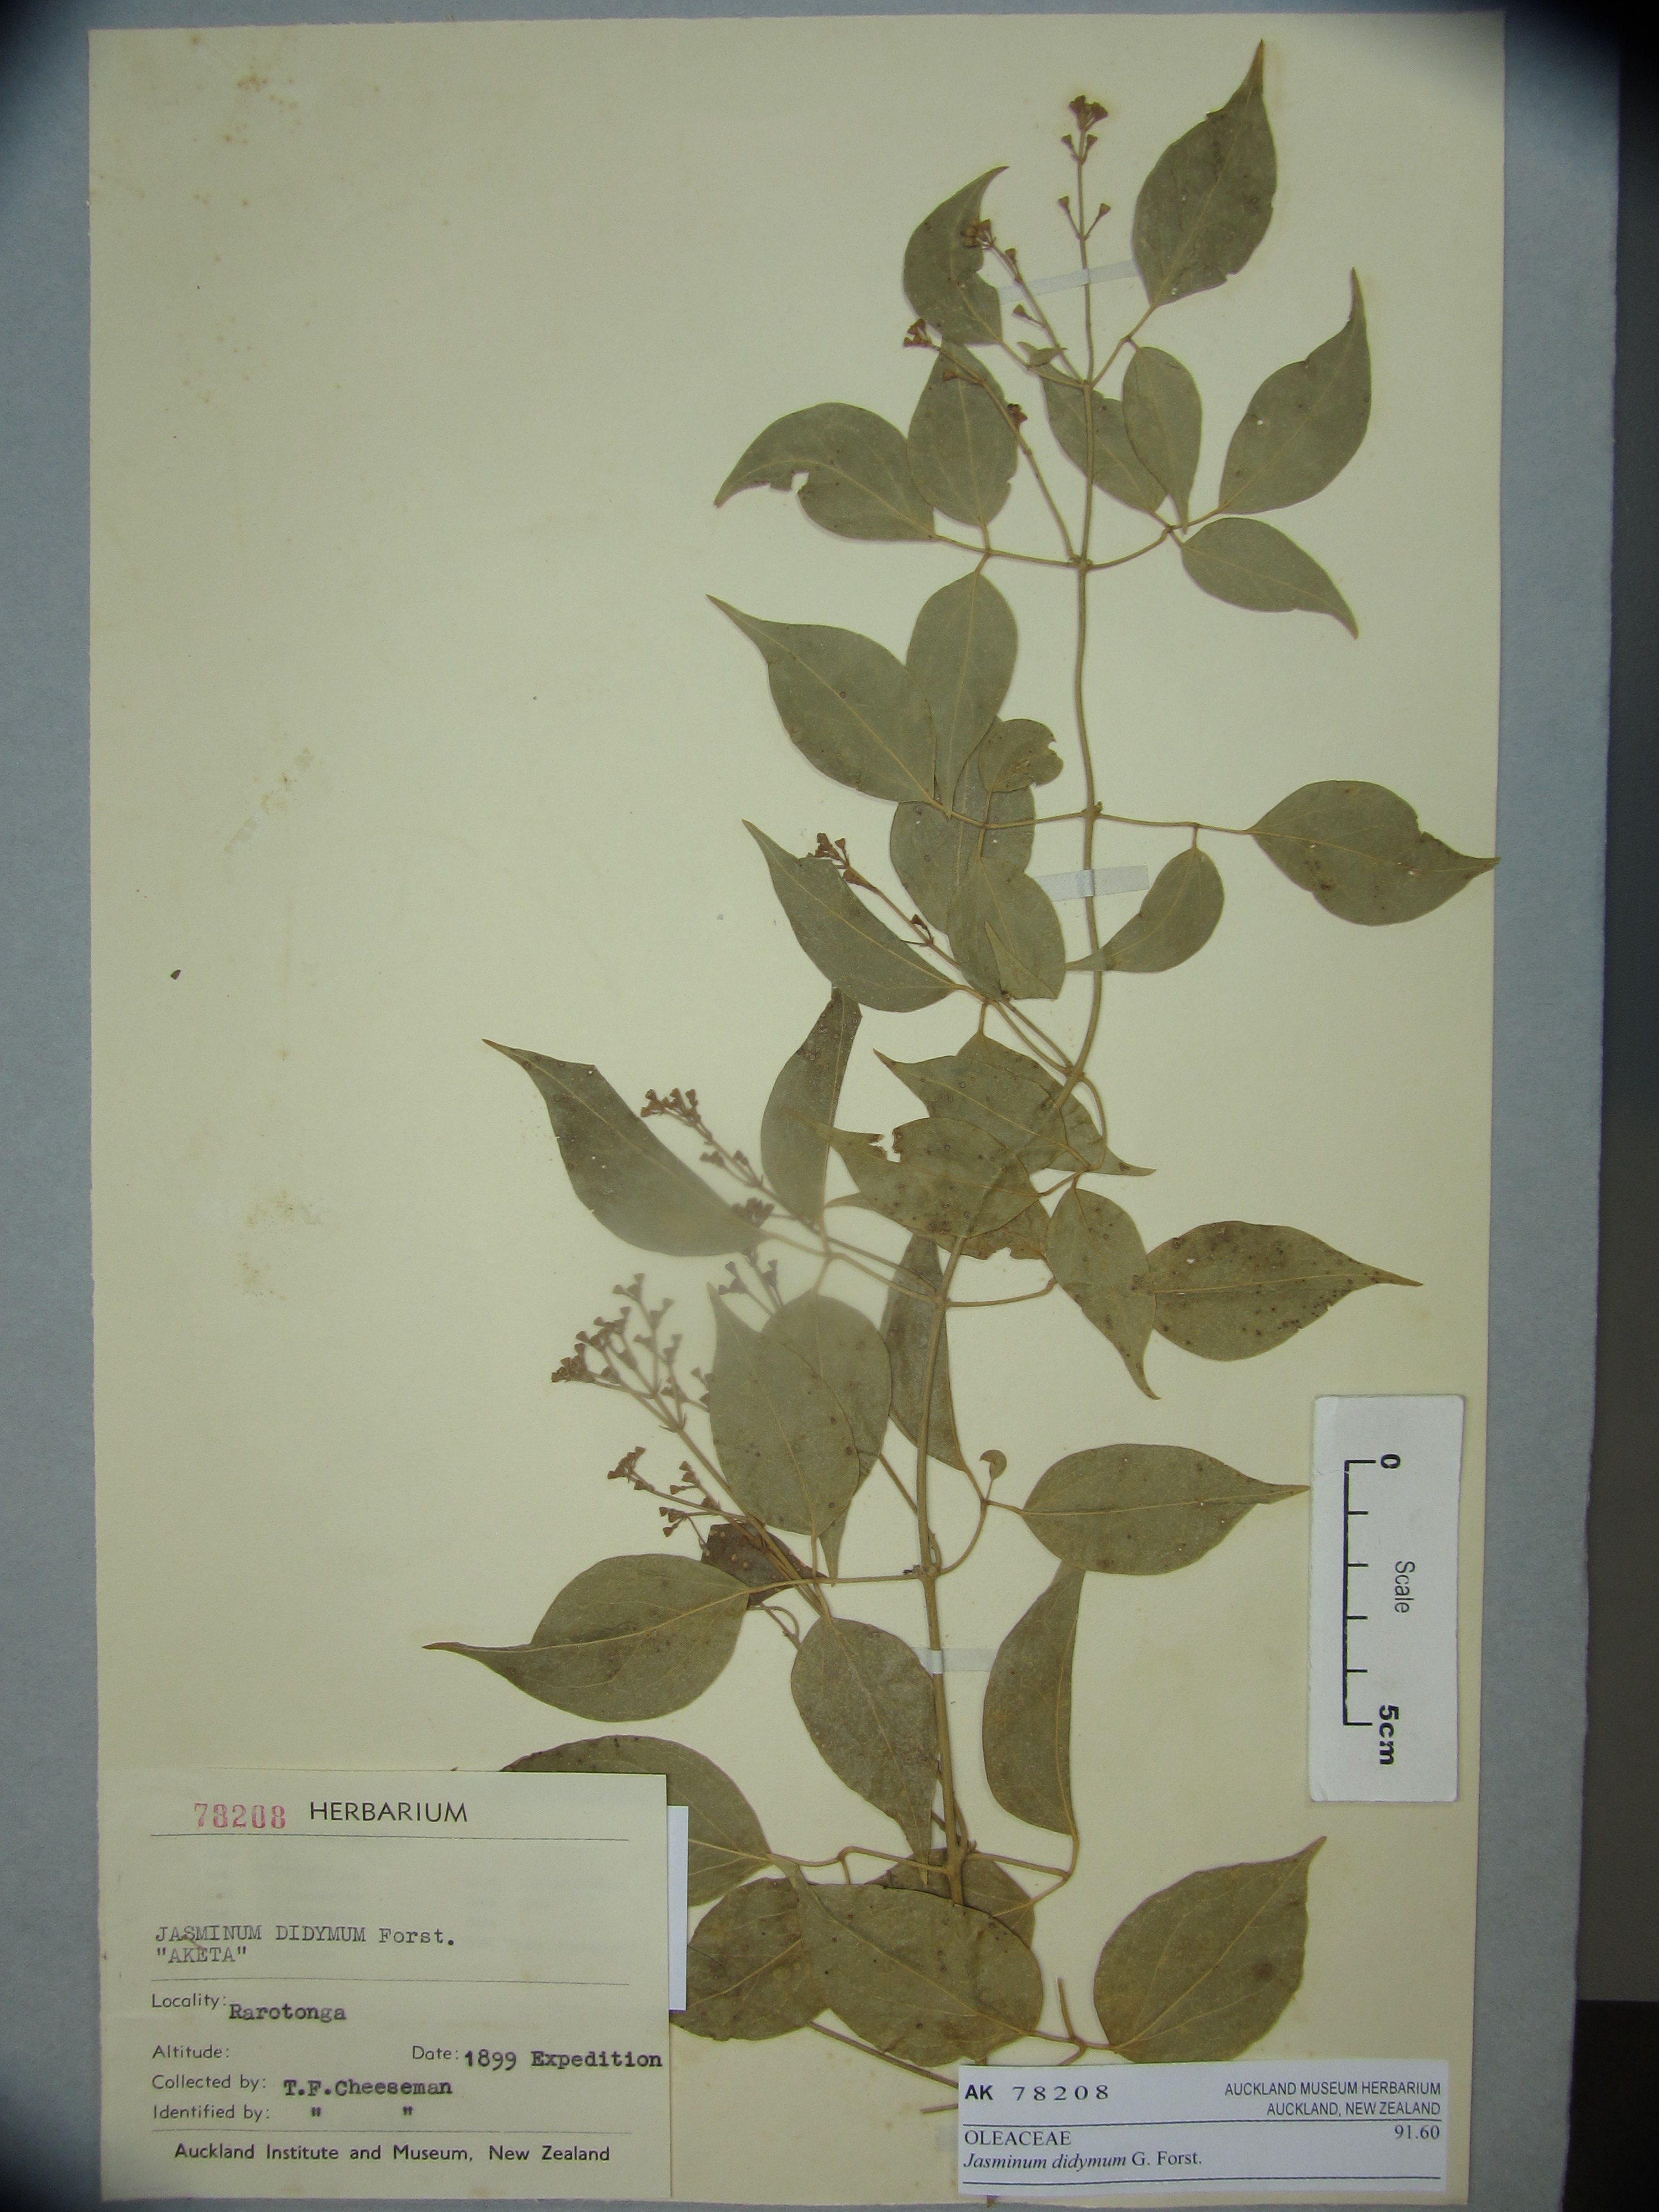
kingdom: Plantae
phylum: Tracheophyta
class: Magnoliopsida
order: Lamiales
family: Oleaceae
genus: Jasminum
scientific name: Jasminum didymum
